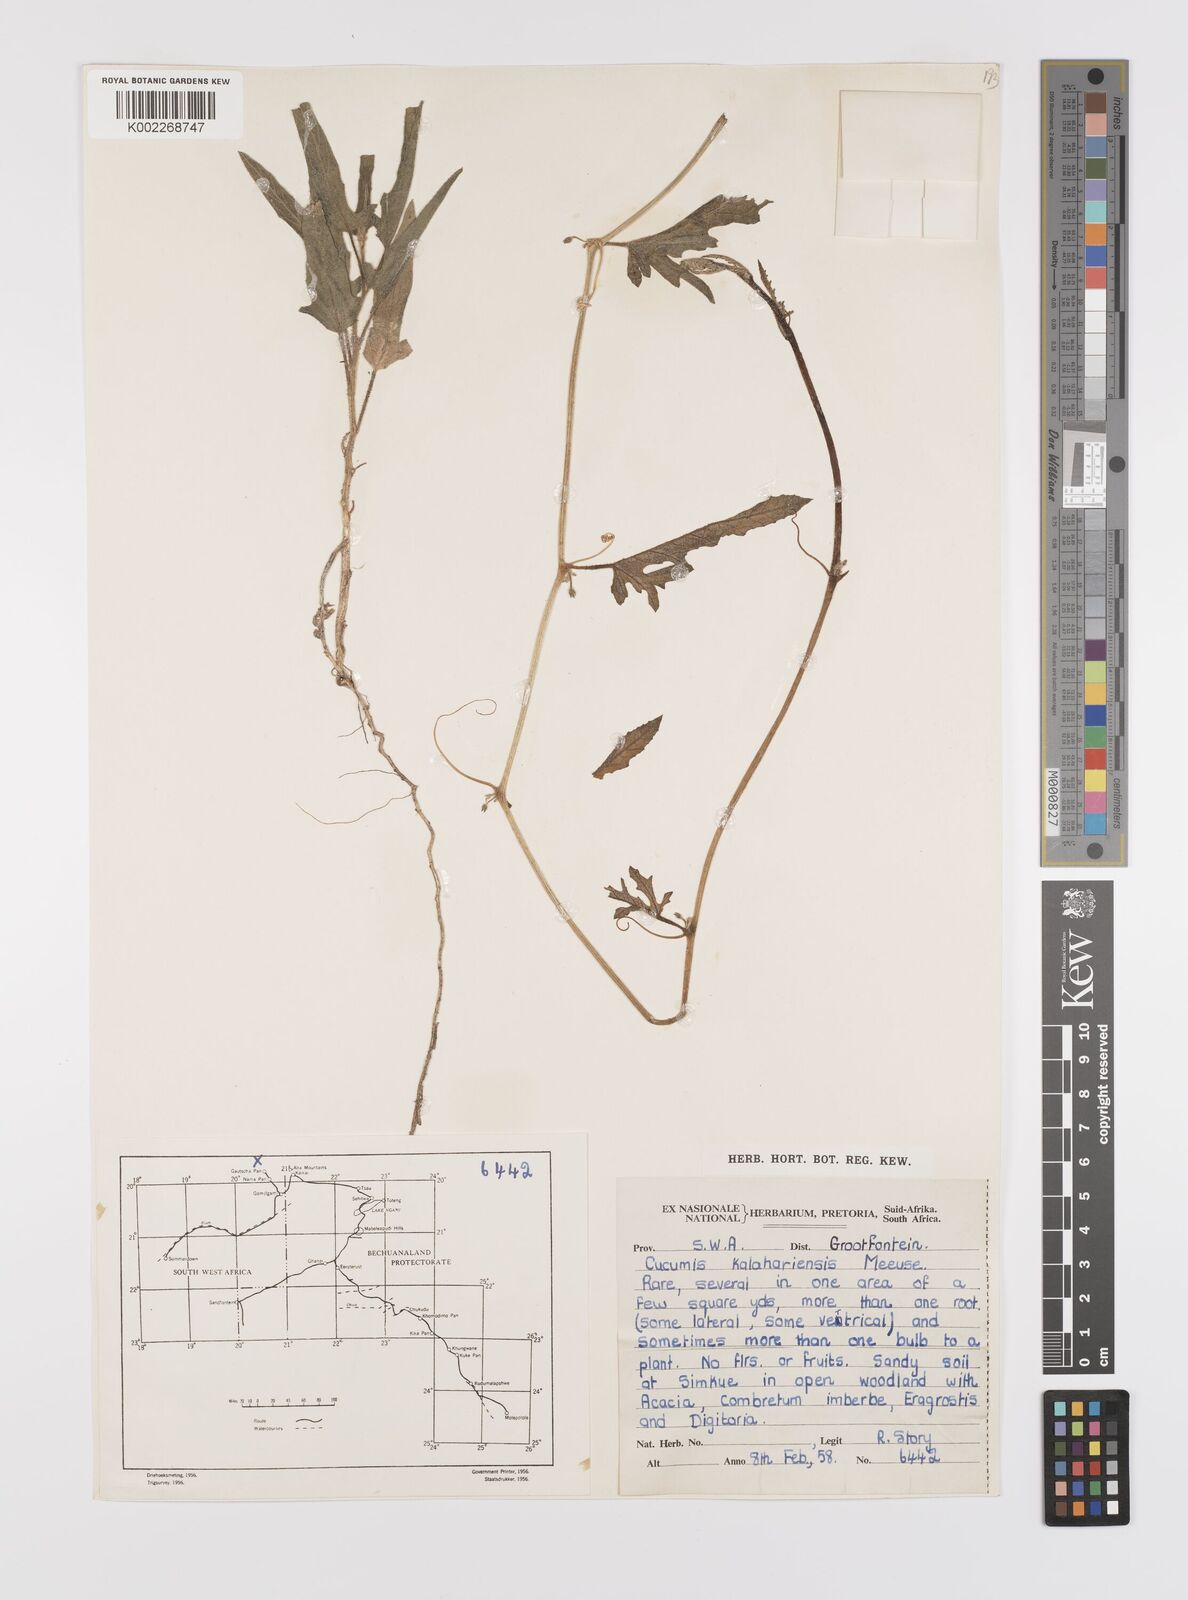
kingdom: Plantae
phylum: Tracheophyta
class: Magnoliopsida
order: Cucurbitales
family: Cucurbitaceae
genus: Cucumis
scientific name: Cucumis kalahariensis
